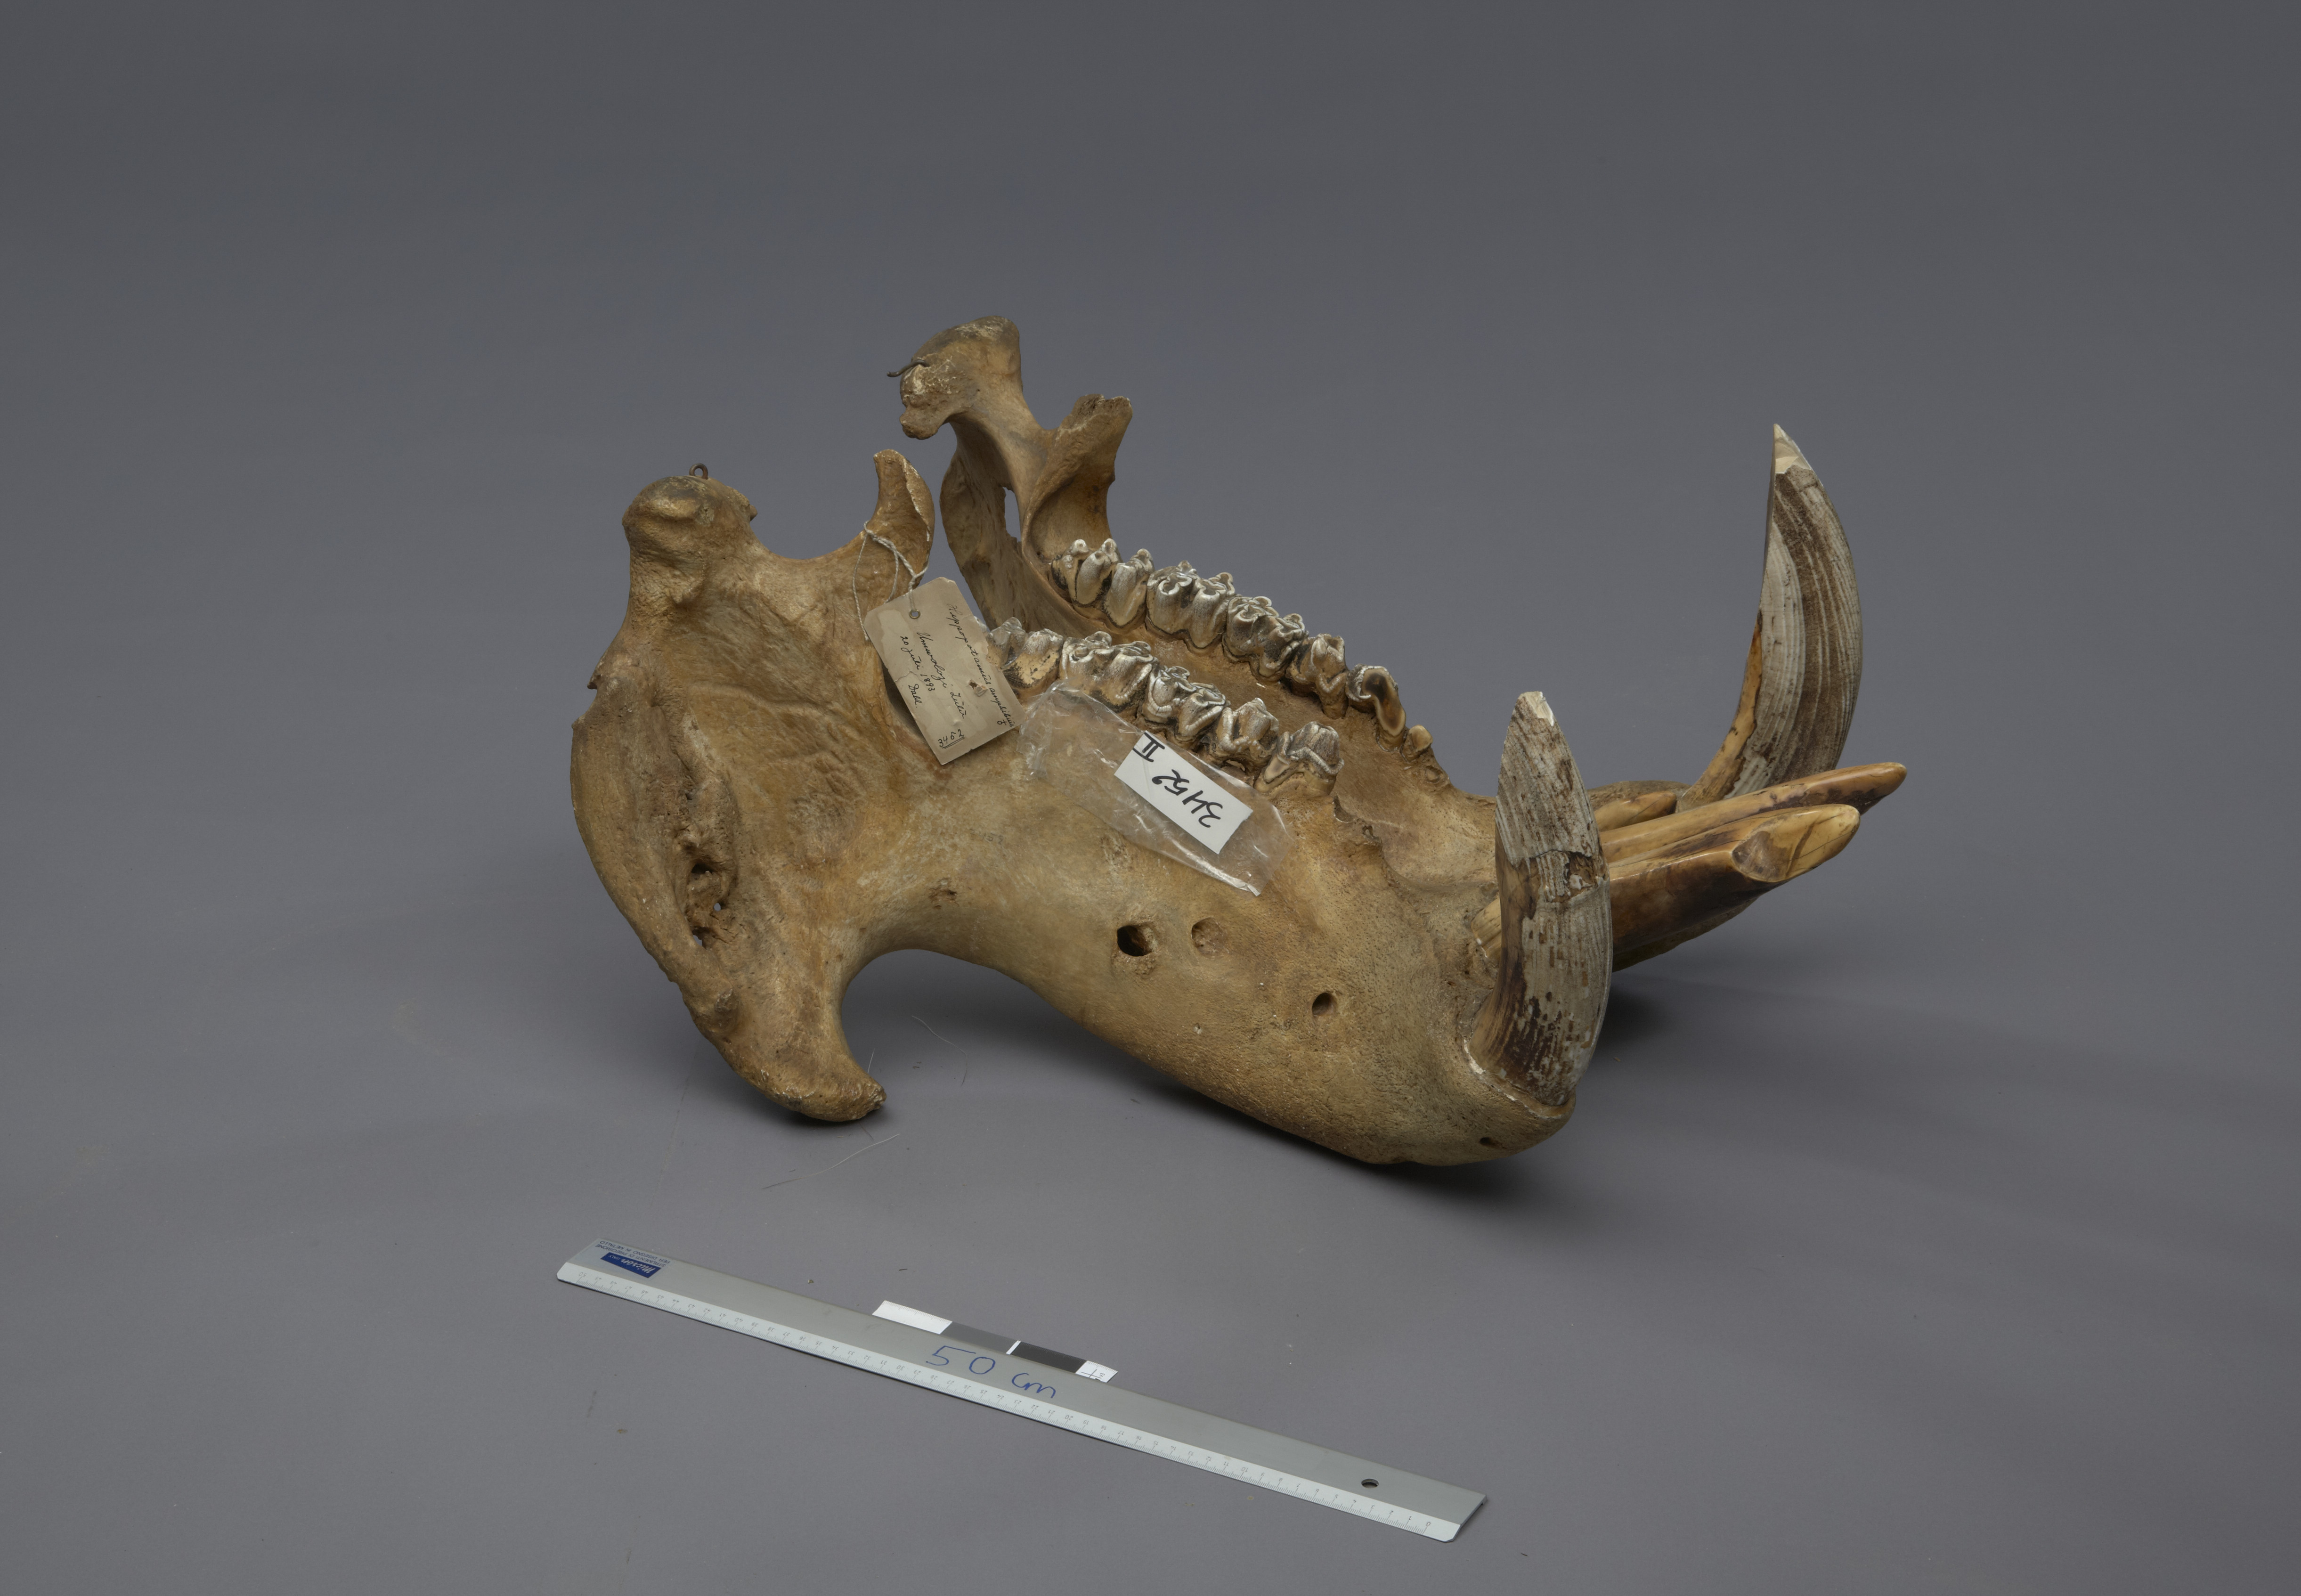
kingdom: Animalia
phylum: Chordata
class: Mammalia
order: Artiodactyla
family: Hippopotamidae
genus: Hippopotamus
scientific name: Hippopotamus amphibius
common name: Common hippopotamus
